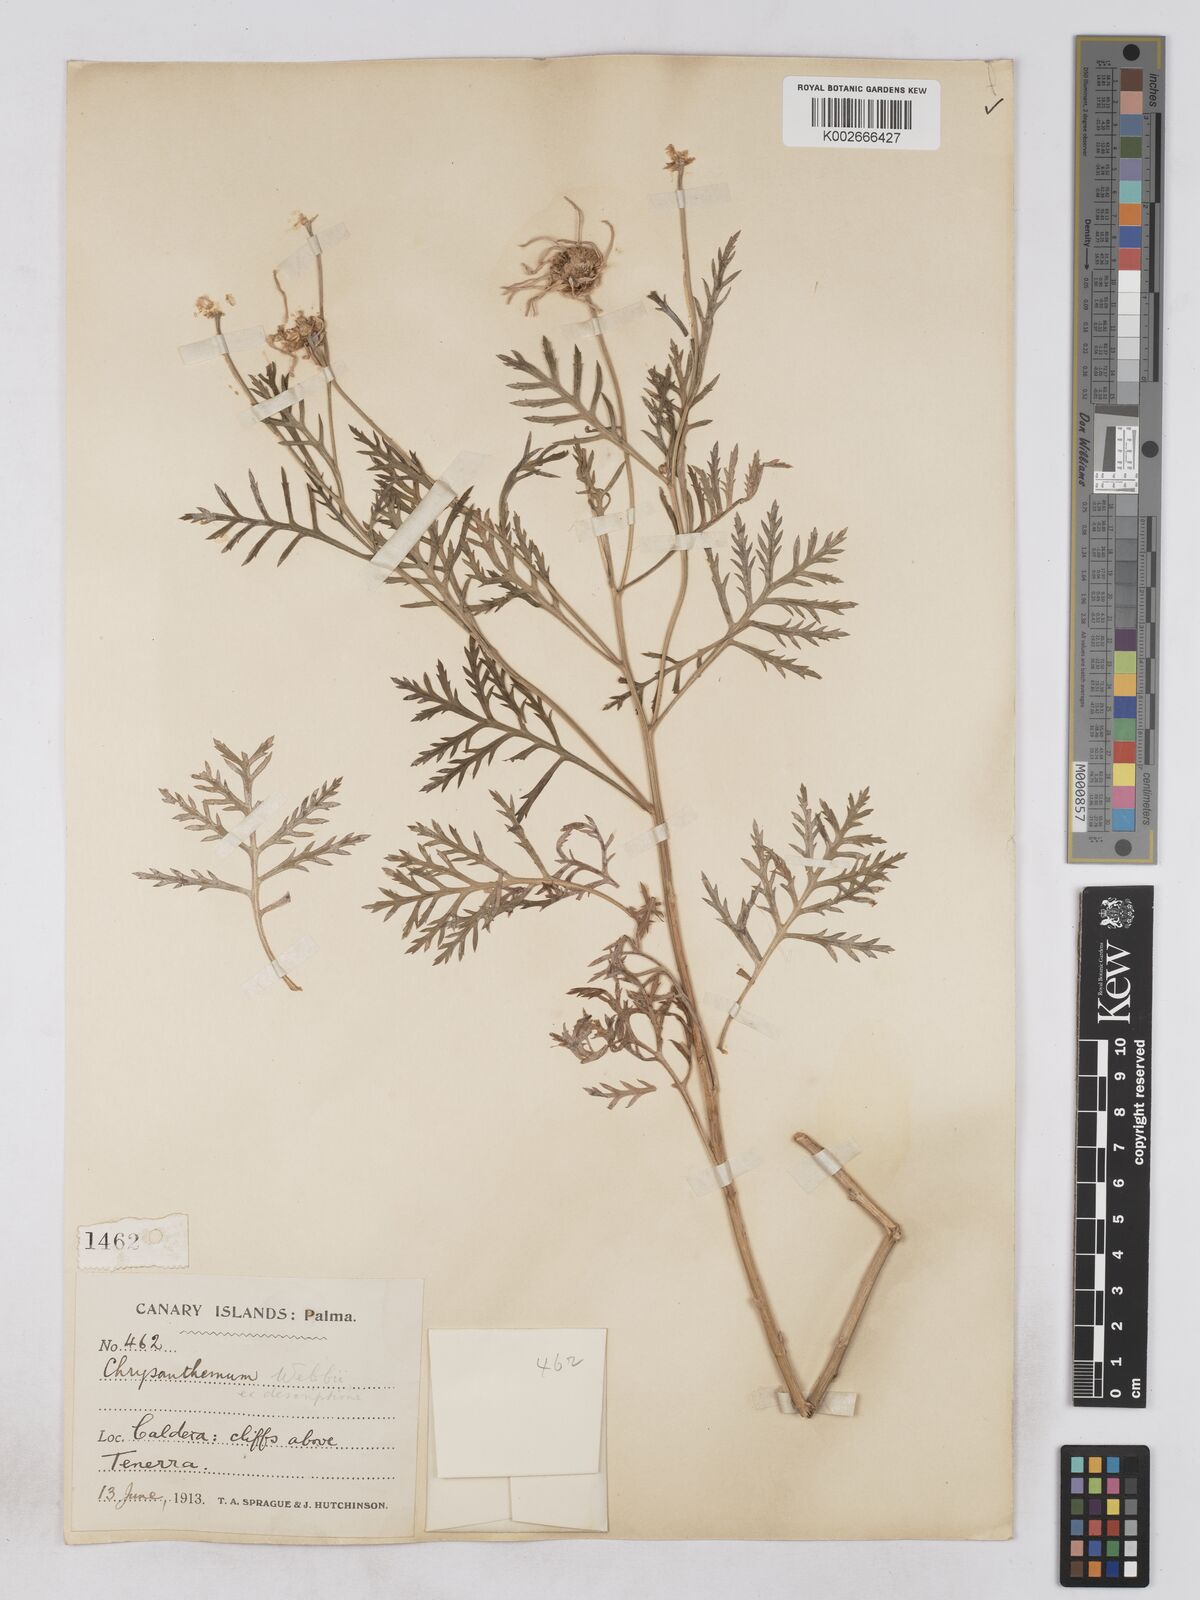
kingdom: Plantae
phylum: Tracheophyta
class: Magnoliopsida
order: Asterales
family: Asteraceae
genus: Argyranthemum
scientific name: Argyranthemum haouarytheum
